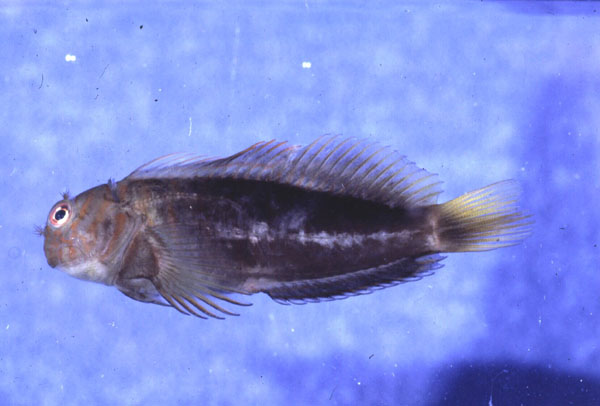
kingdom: Animalia
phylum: Chordata
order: Perciformes
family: Blenniidae
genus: Cirripectes
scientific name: Cirripectes castaneus
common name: Chestnut blenny
